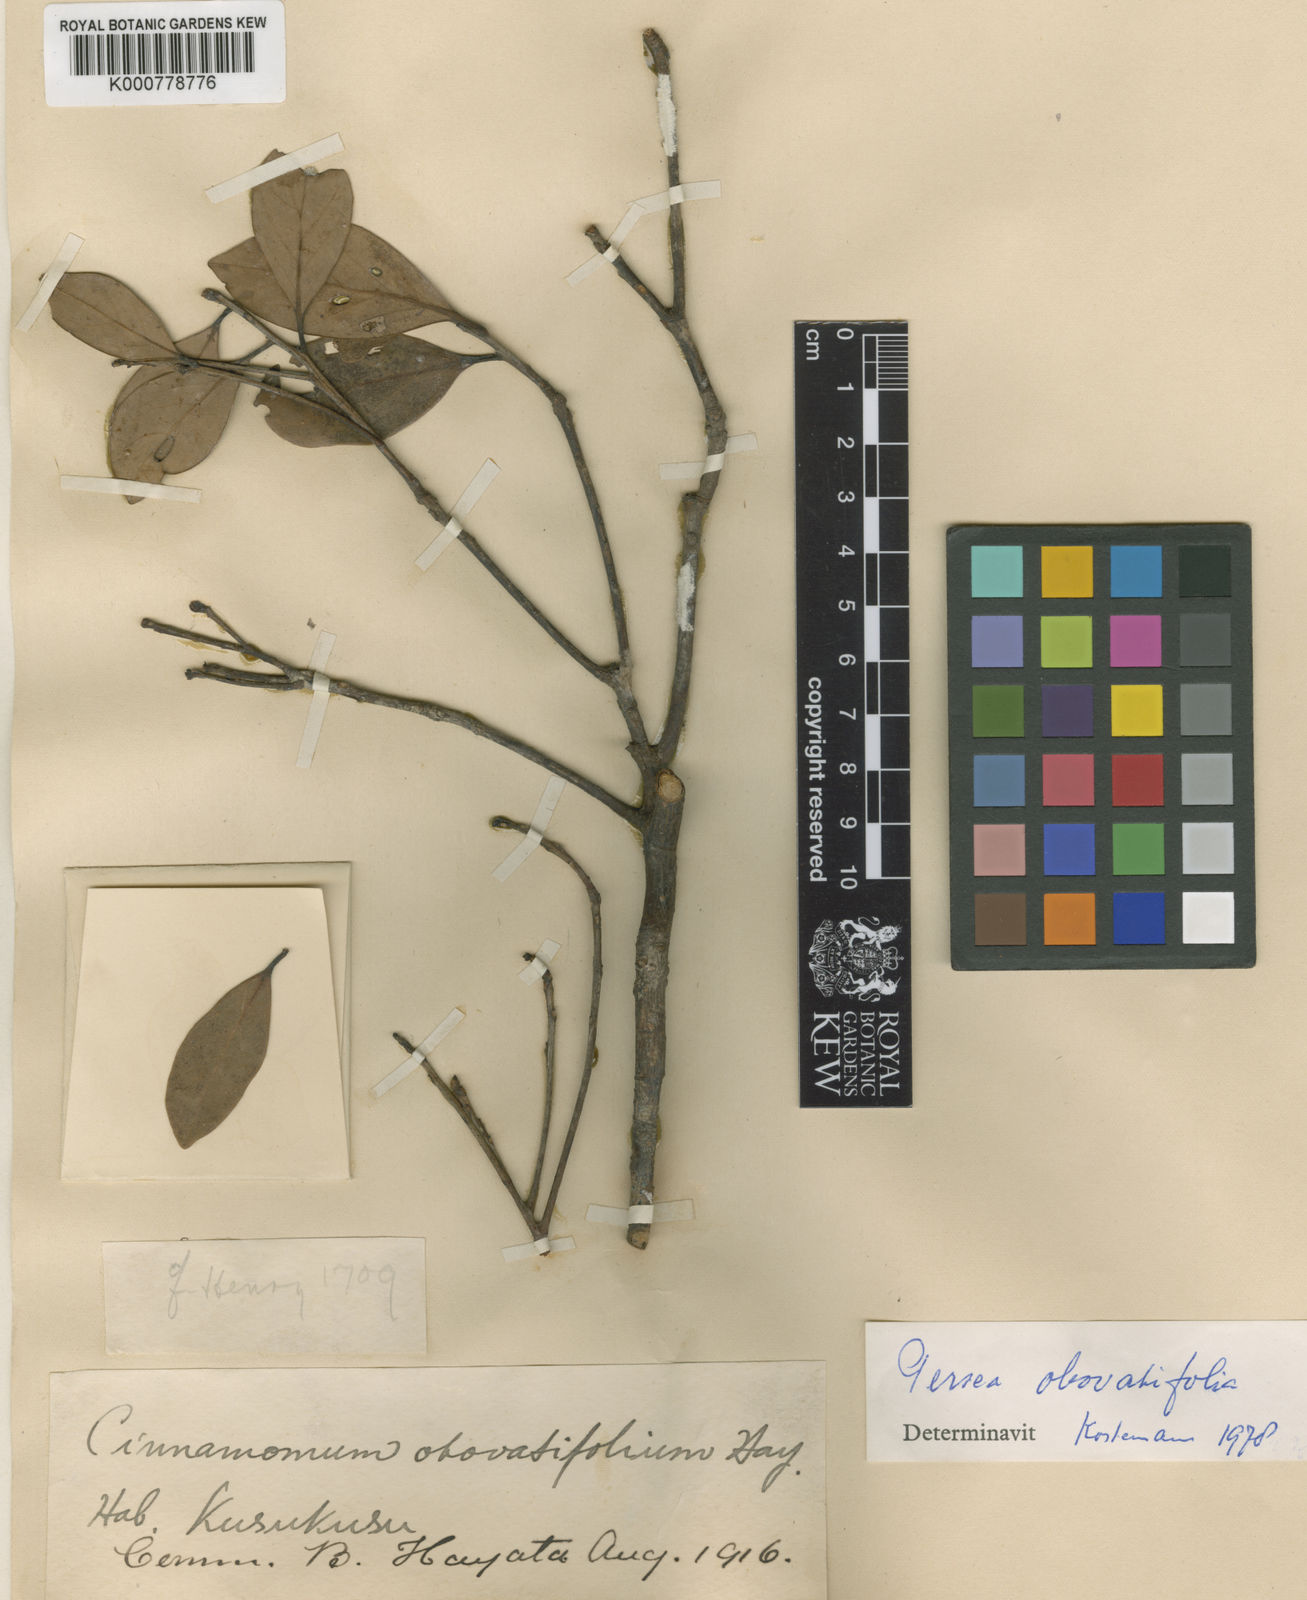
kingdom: Plantae
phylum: Tracheophyta
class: Magnoliopsida
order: Laurales
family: Lauraceae
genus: Machilus
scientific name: Machilus obovatifolia
